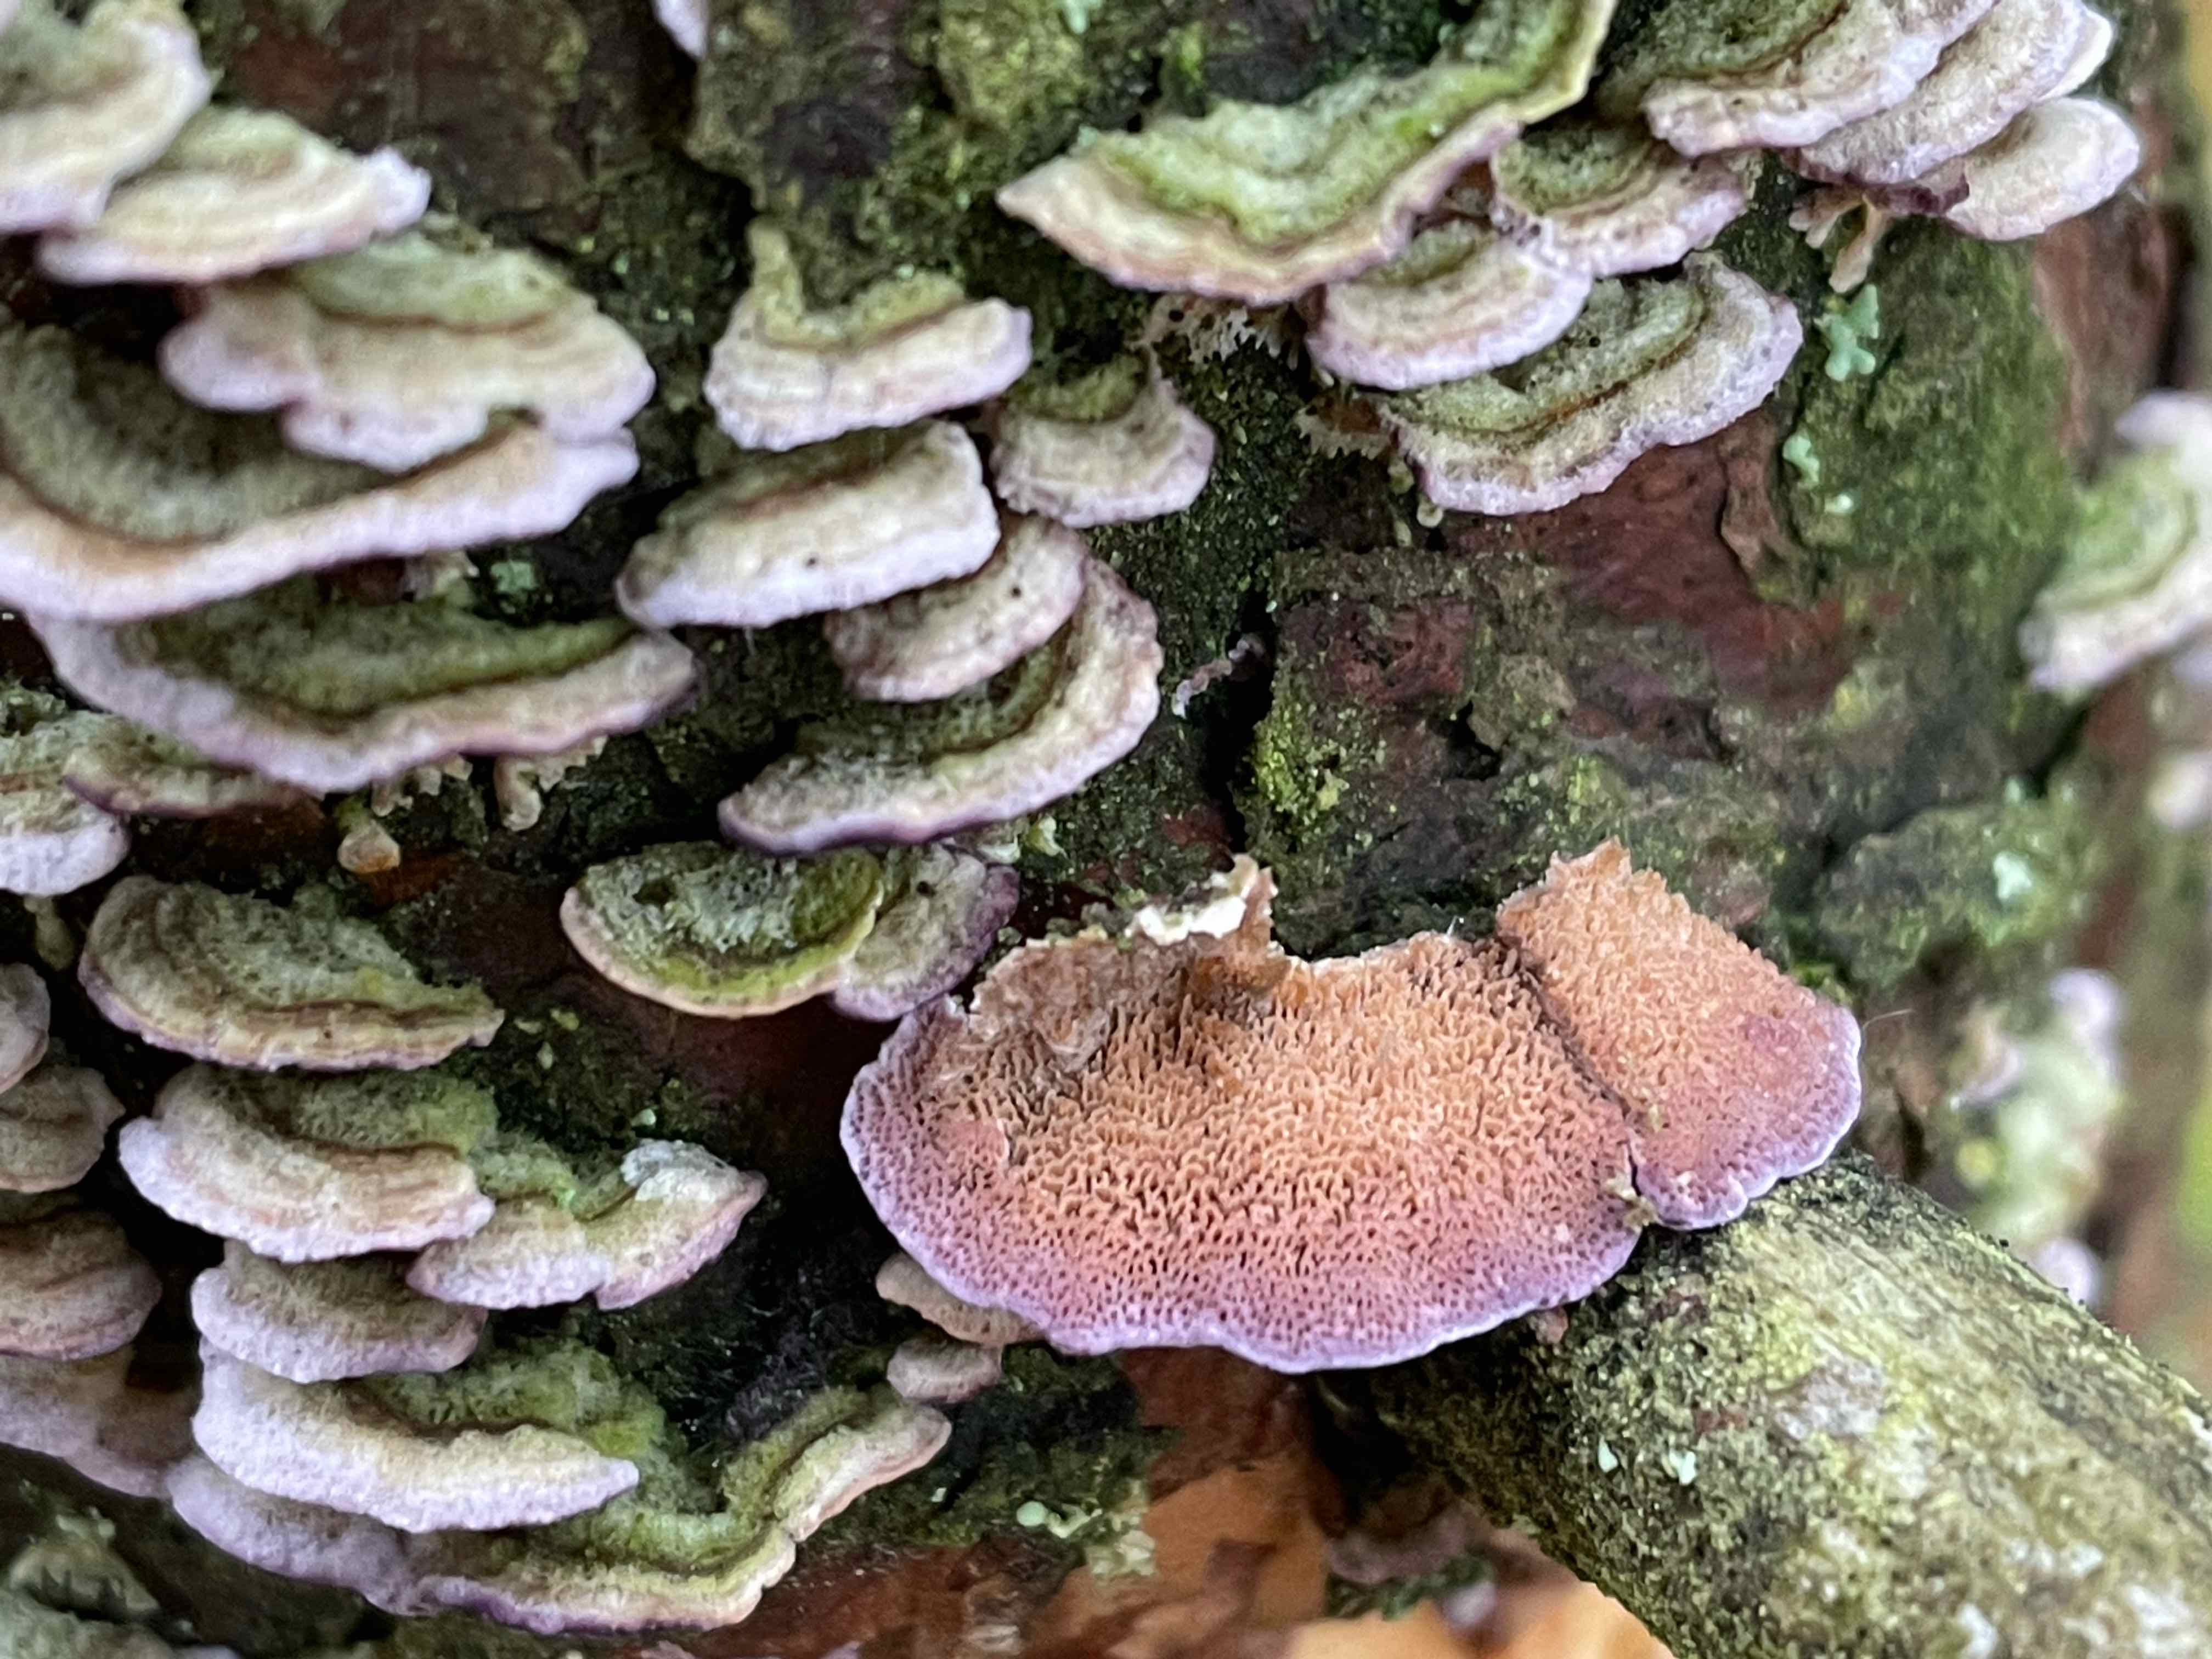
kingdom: Fungi
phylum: Basidiomycota
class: Agaricomycetes
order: Hymenochaetales
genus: Trichaptum
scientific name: Trichaptum abietinum
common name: almindelig violporesvamp
